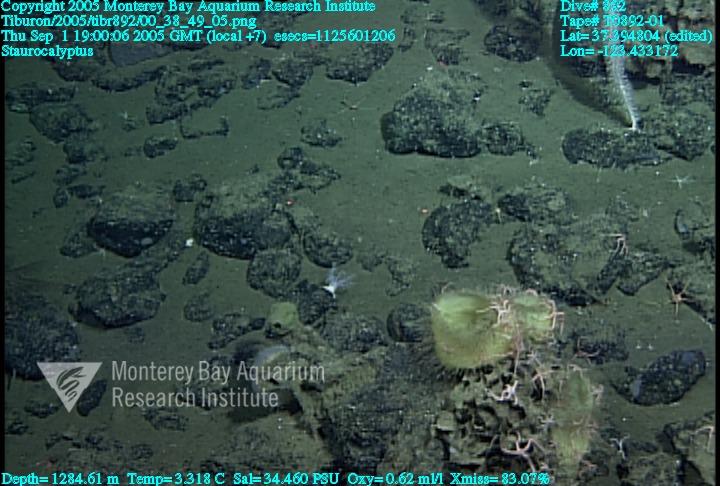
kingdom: Animalia
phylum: Porifera
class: Hexactinellida
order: Lyssacinosida
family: Rossellidae
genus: Staurocalyptus
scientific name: Staurocalyptus
